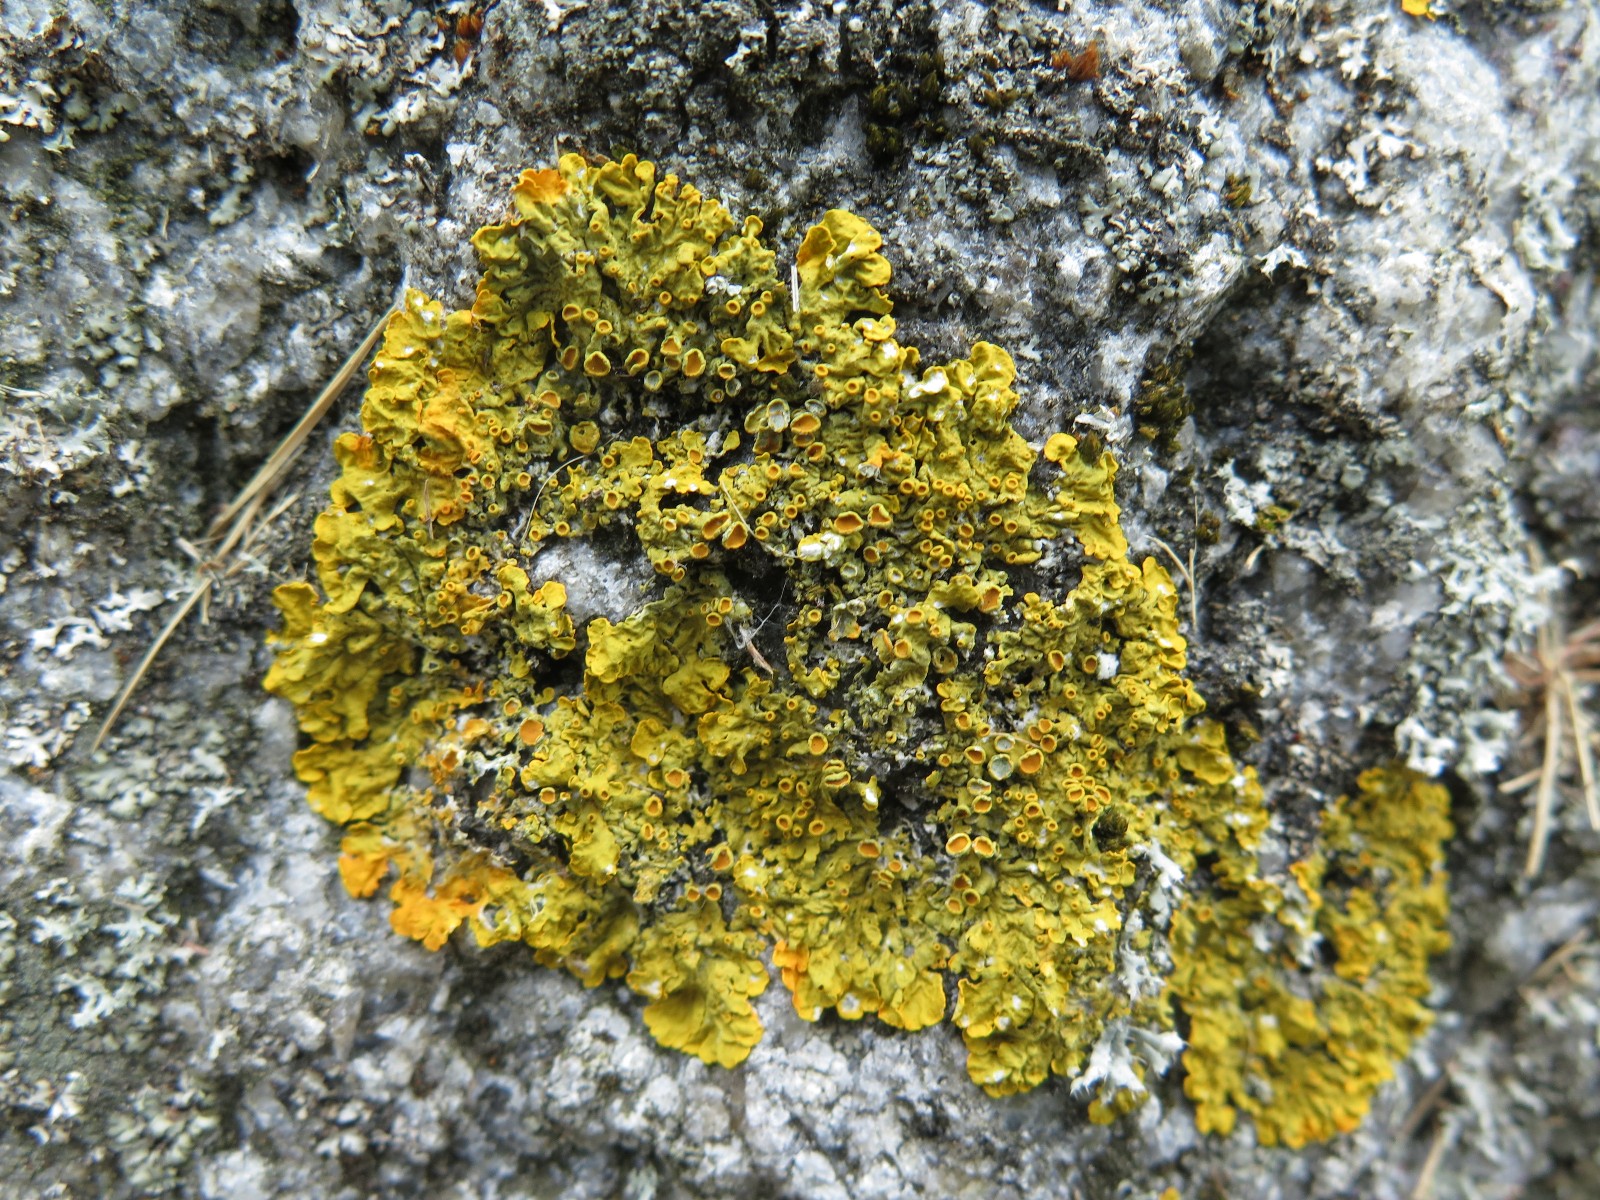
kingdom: Fungi
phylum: Ascomycota
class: Lecanoromycetes
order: Teloschistales
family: Teloschistaceae
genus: Xanthoria
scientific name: Xanthoria parietina
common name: almindelig væggelav
